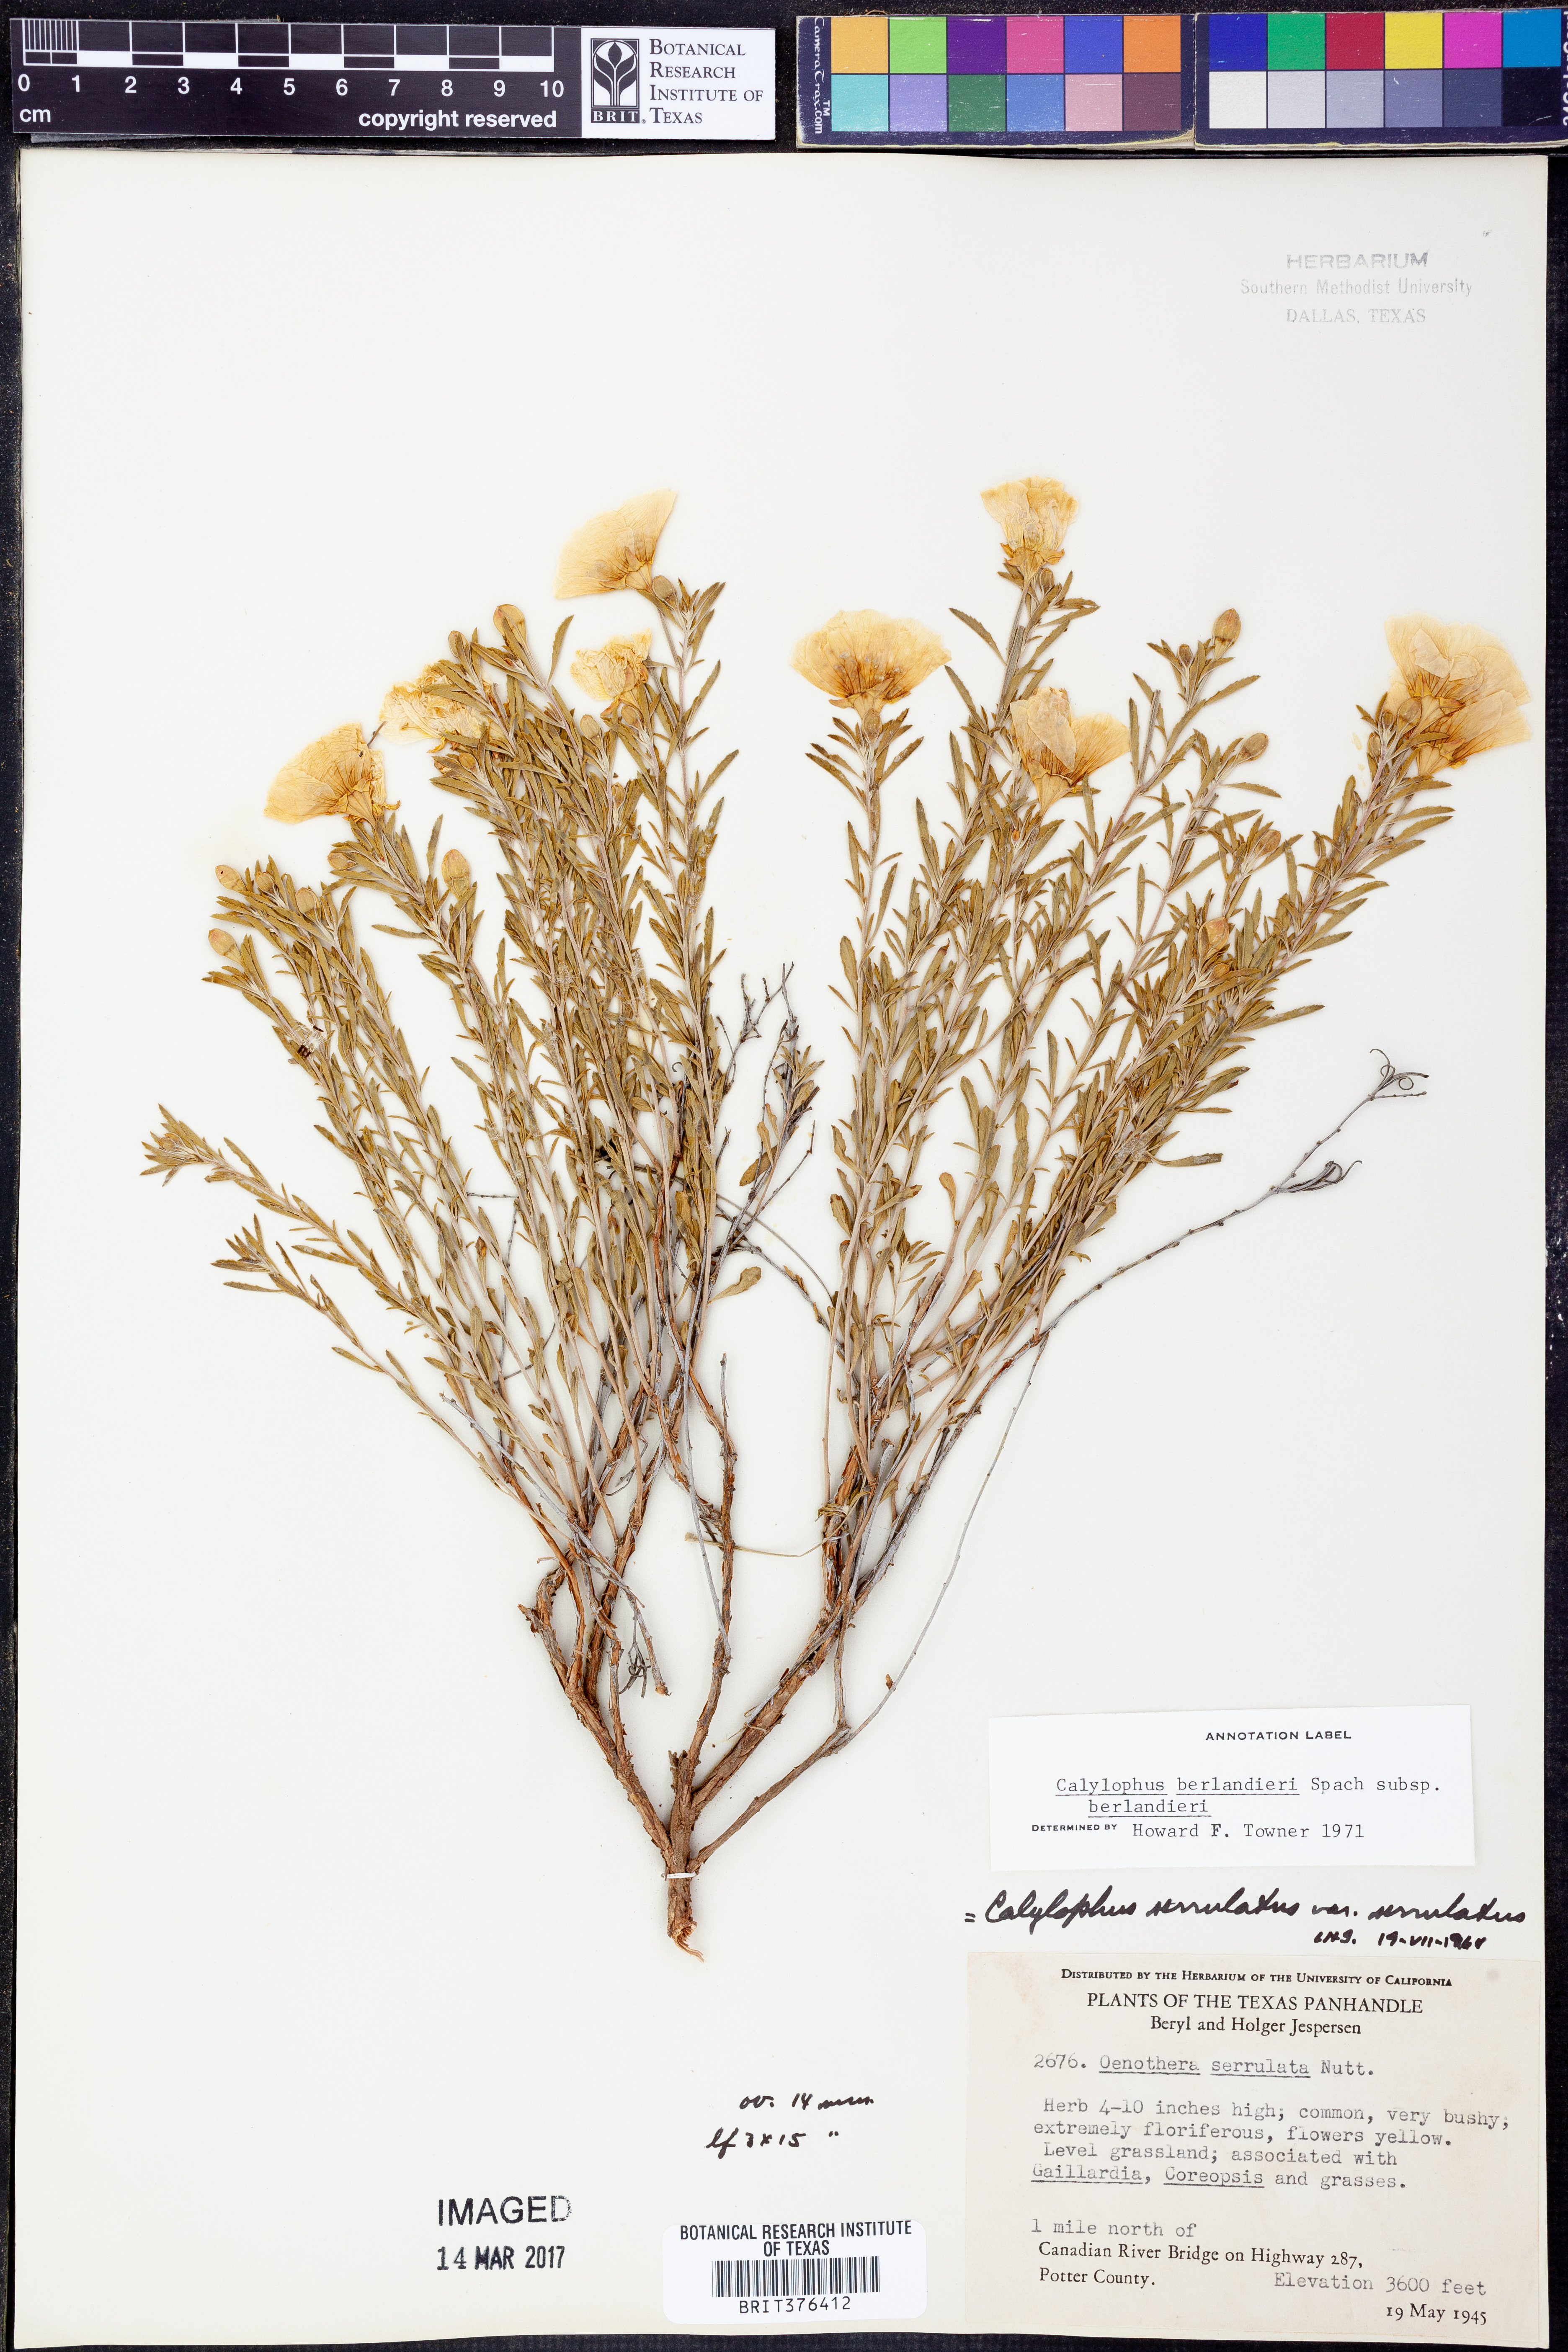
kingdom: Plantae
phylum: Tracheophyta
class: Magnoliopsida
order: Myrtales
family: Onagraceae
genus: Oenothera
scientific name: Oenothera capillifolia
